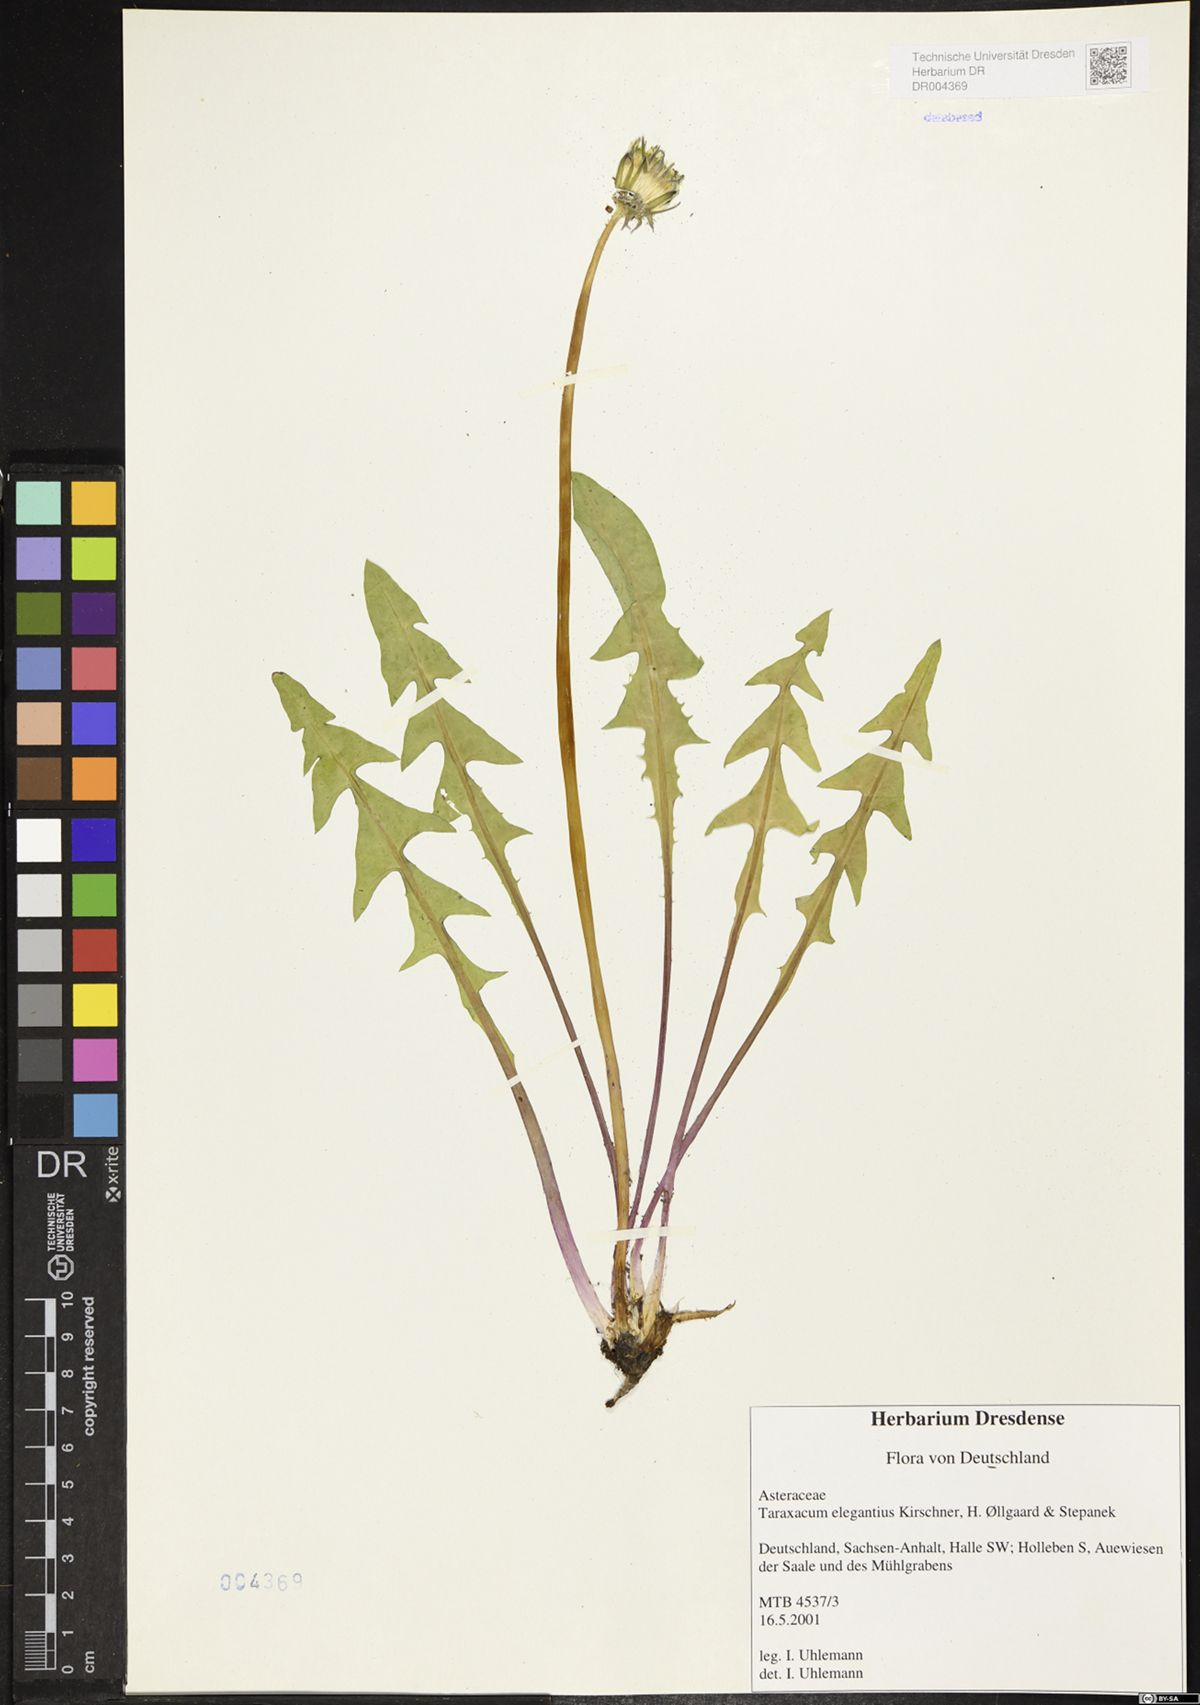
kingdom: Plantae
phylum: Tracheophyta
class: Magnoliopsida
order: Asterales
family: Asteraceae
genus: Taraxacum
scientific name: Taraxacum elegantius
